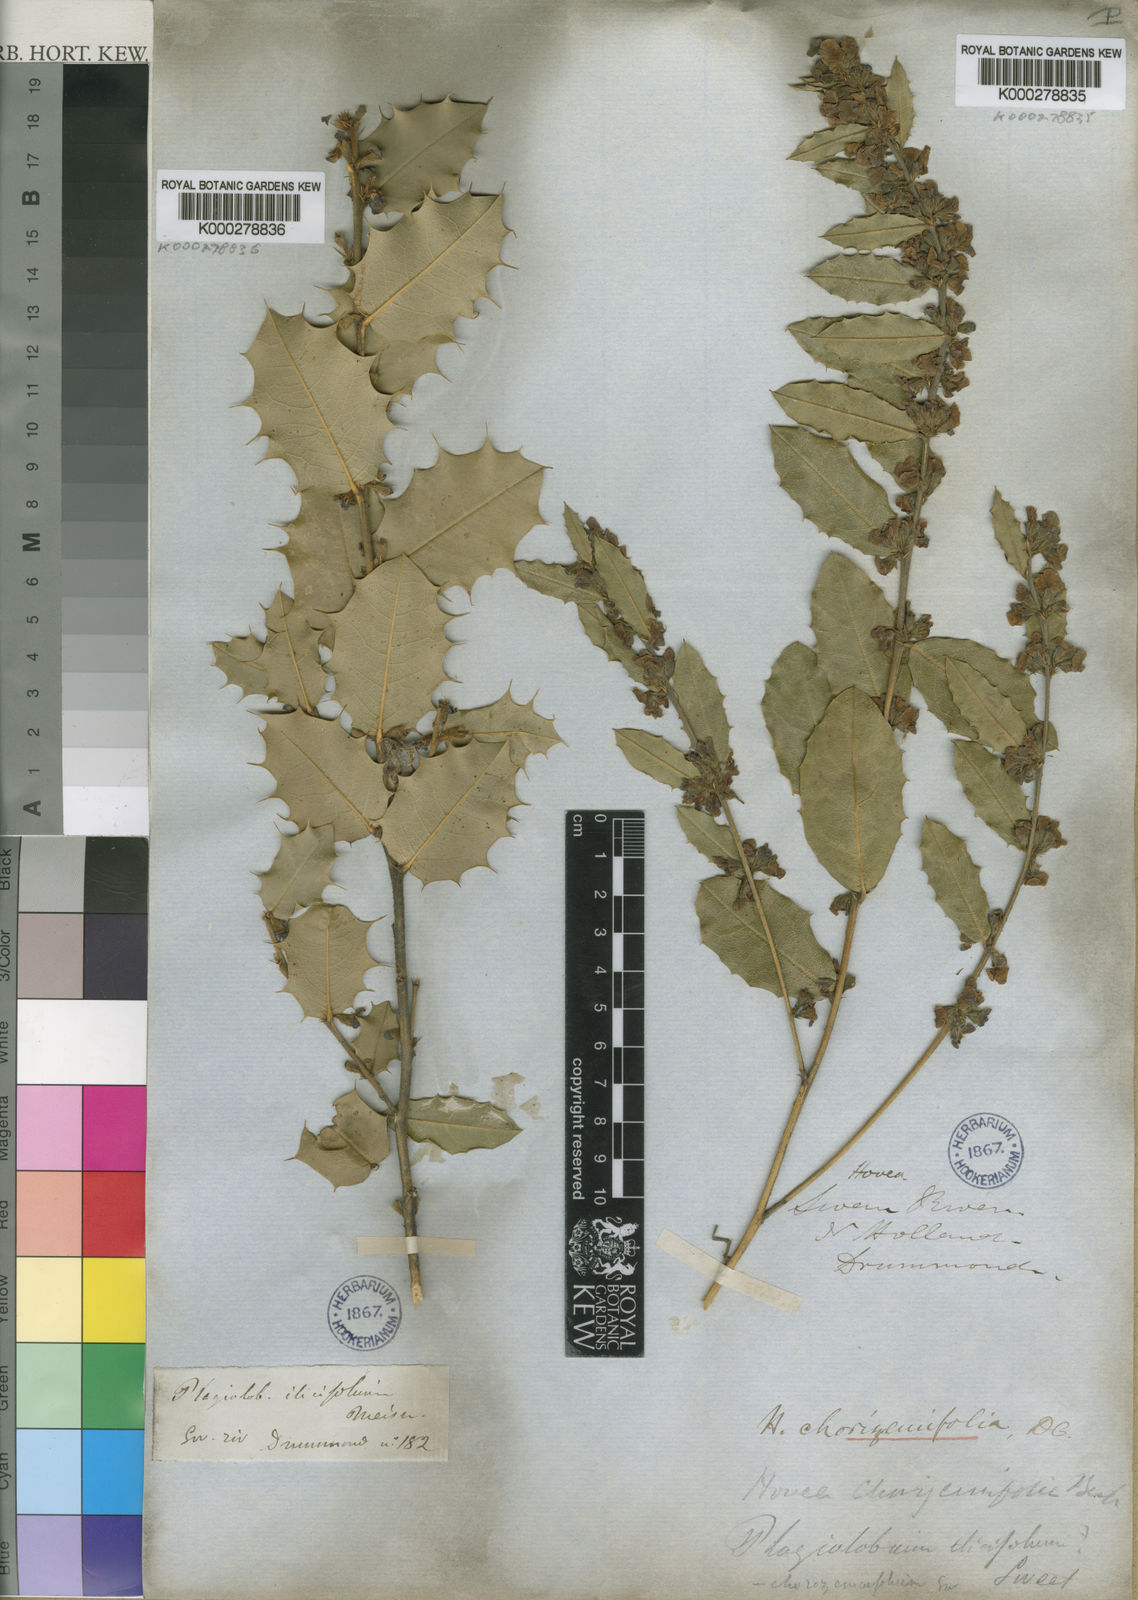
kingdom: Plantae
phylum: Tracheophyta
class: Magnoliopsida
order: Fabales
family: Fabaceae
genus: Hovea
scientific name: Hovea chorizemifolia
